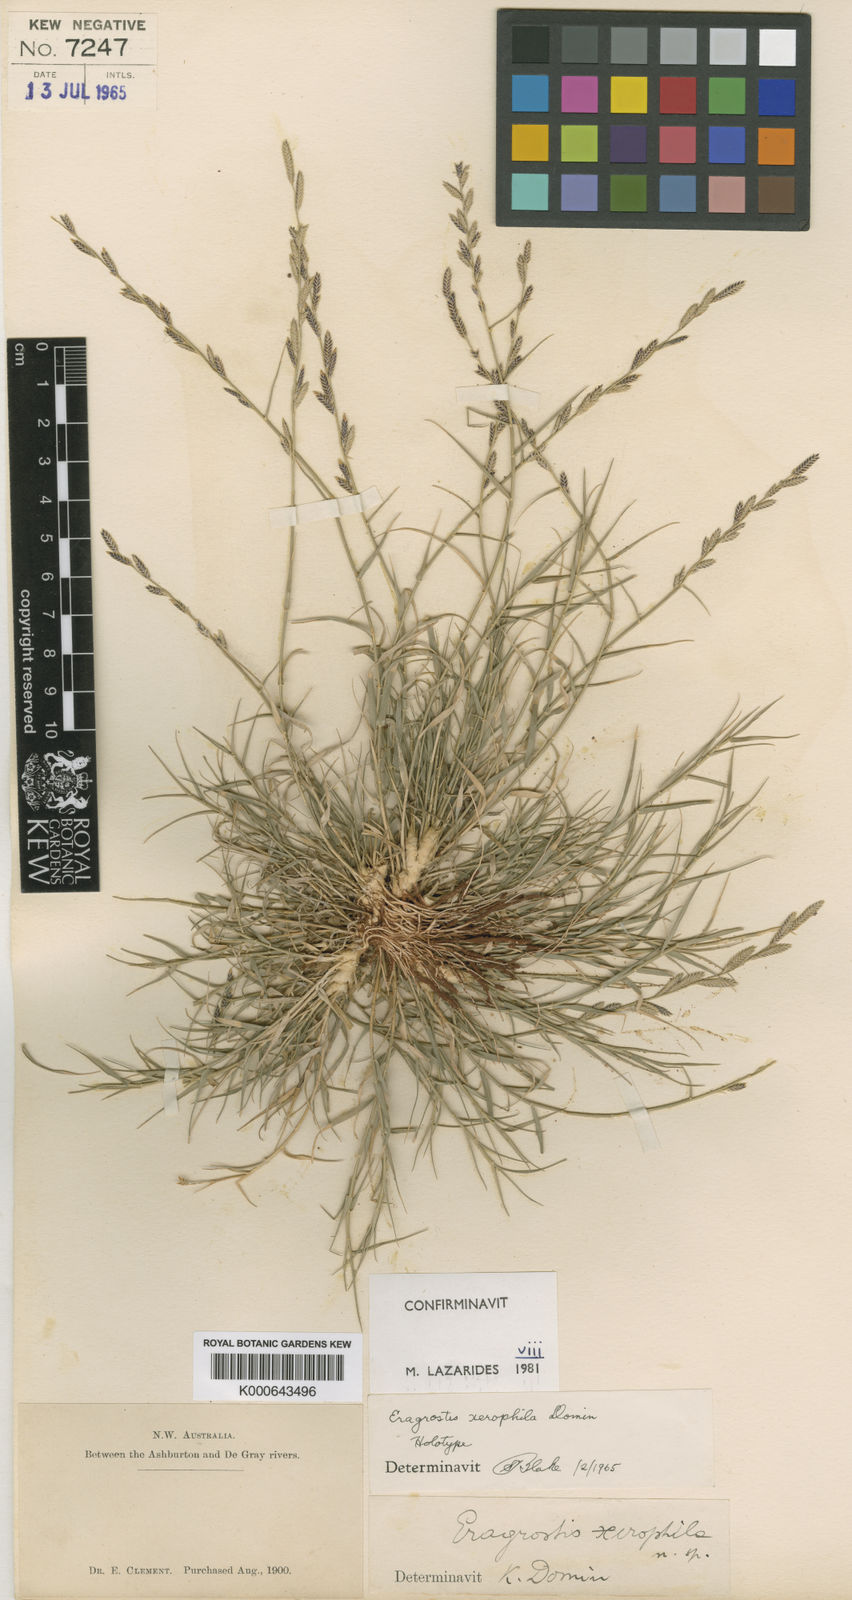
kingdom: Plantae
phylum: Tracheophyta
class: Liliopsida
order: Poales
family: Poaceae
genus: Eragrostis
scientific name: Eragrostis xerophila
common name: Wire wandarrie grass
